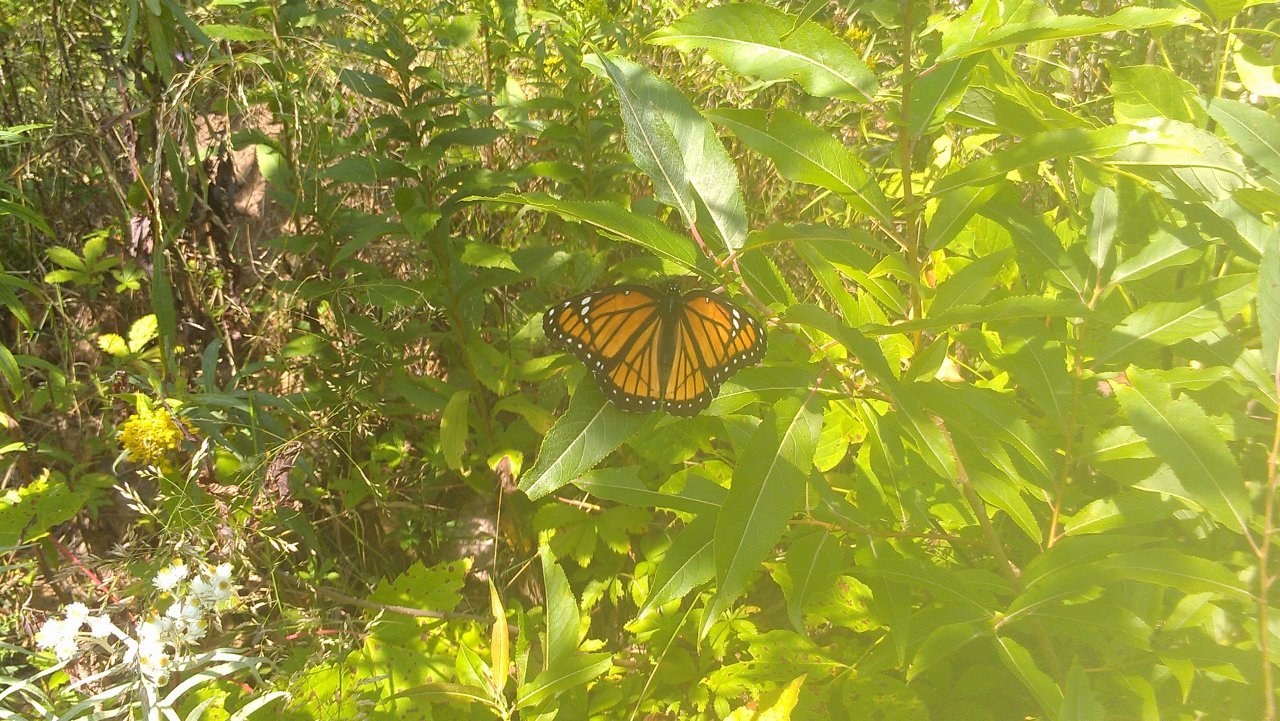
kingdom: Animalia
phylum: Arthropoda
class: Insecta
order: Lepidoptera
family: Nymphalidae
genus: Limenitis
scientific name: Limenitis archippus
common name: Viceroy
